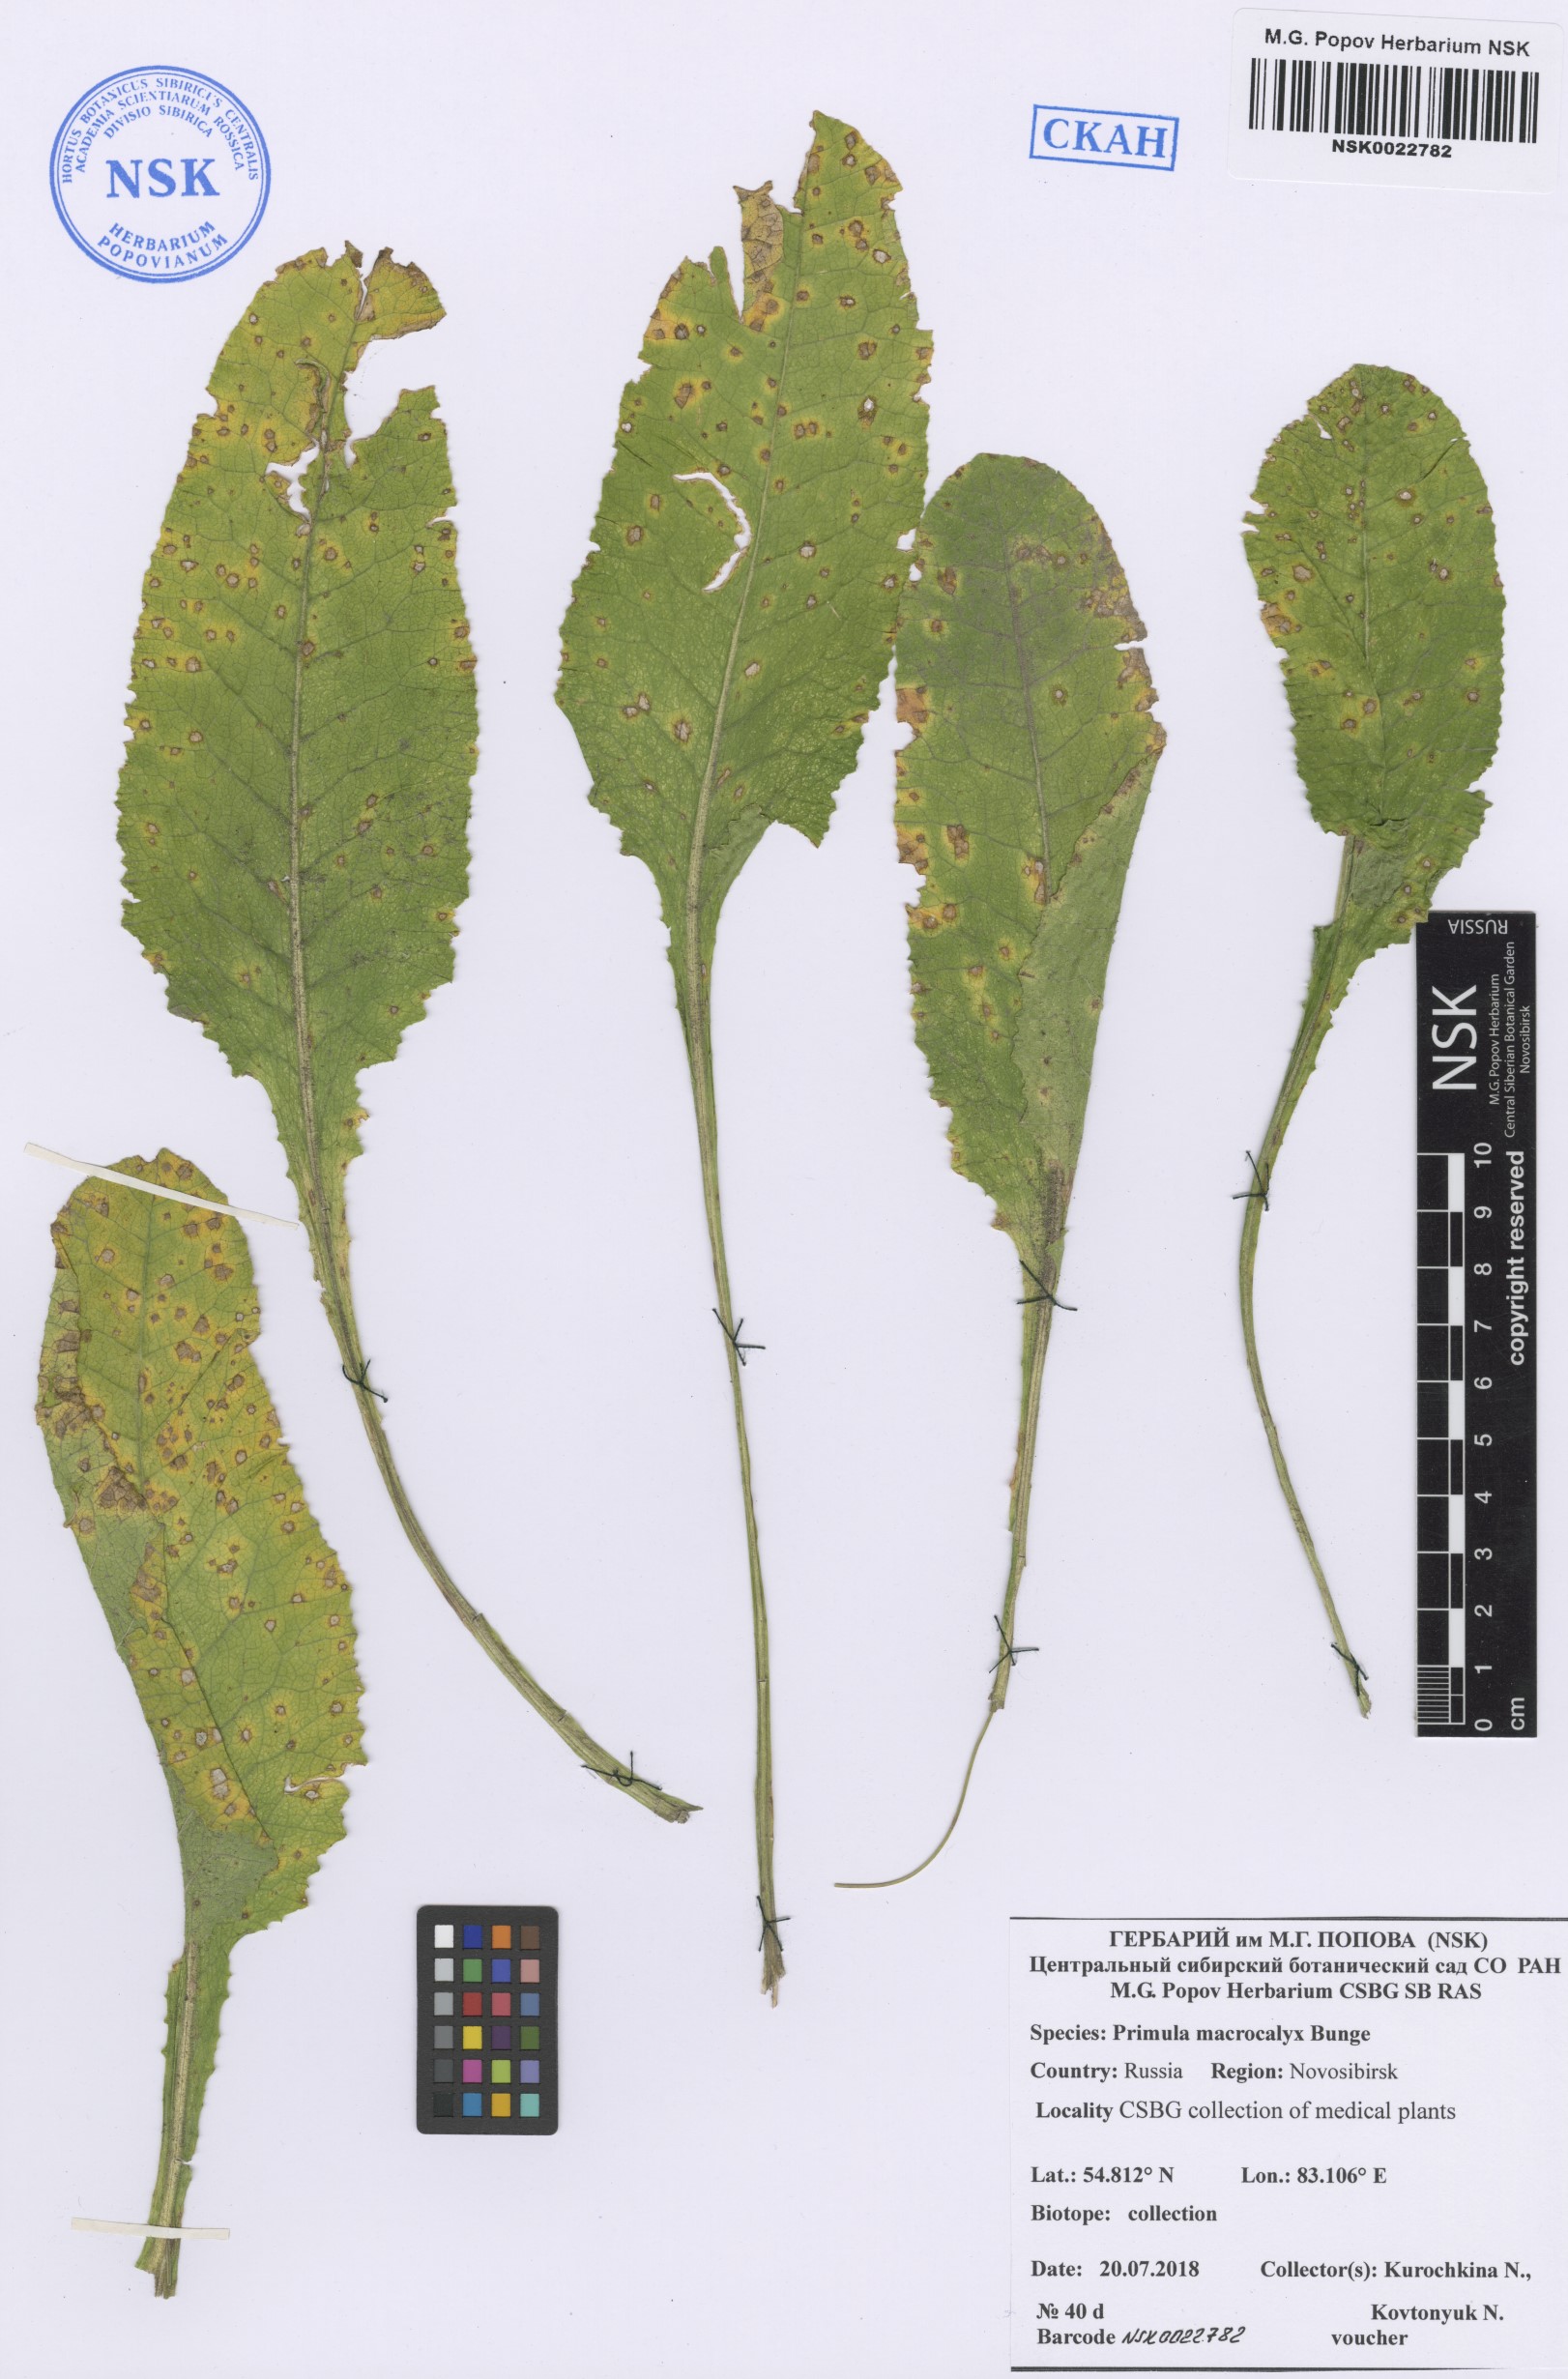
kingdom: Plantae
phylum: Tracheophyta
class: Magnoliopsida
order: Ericales
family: Primulaceae
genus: Primula
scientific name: Primula veris
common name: Cowslip
